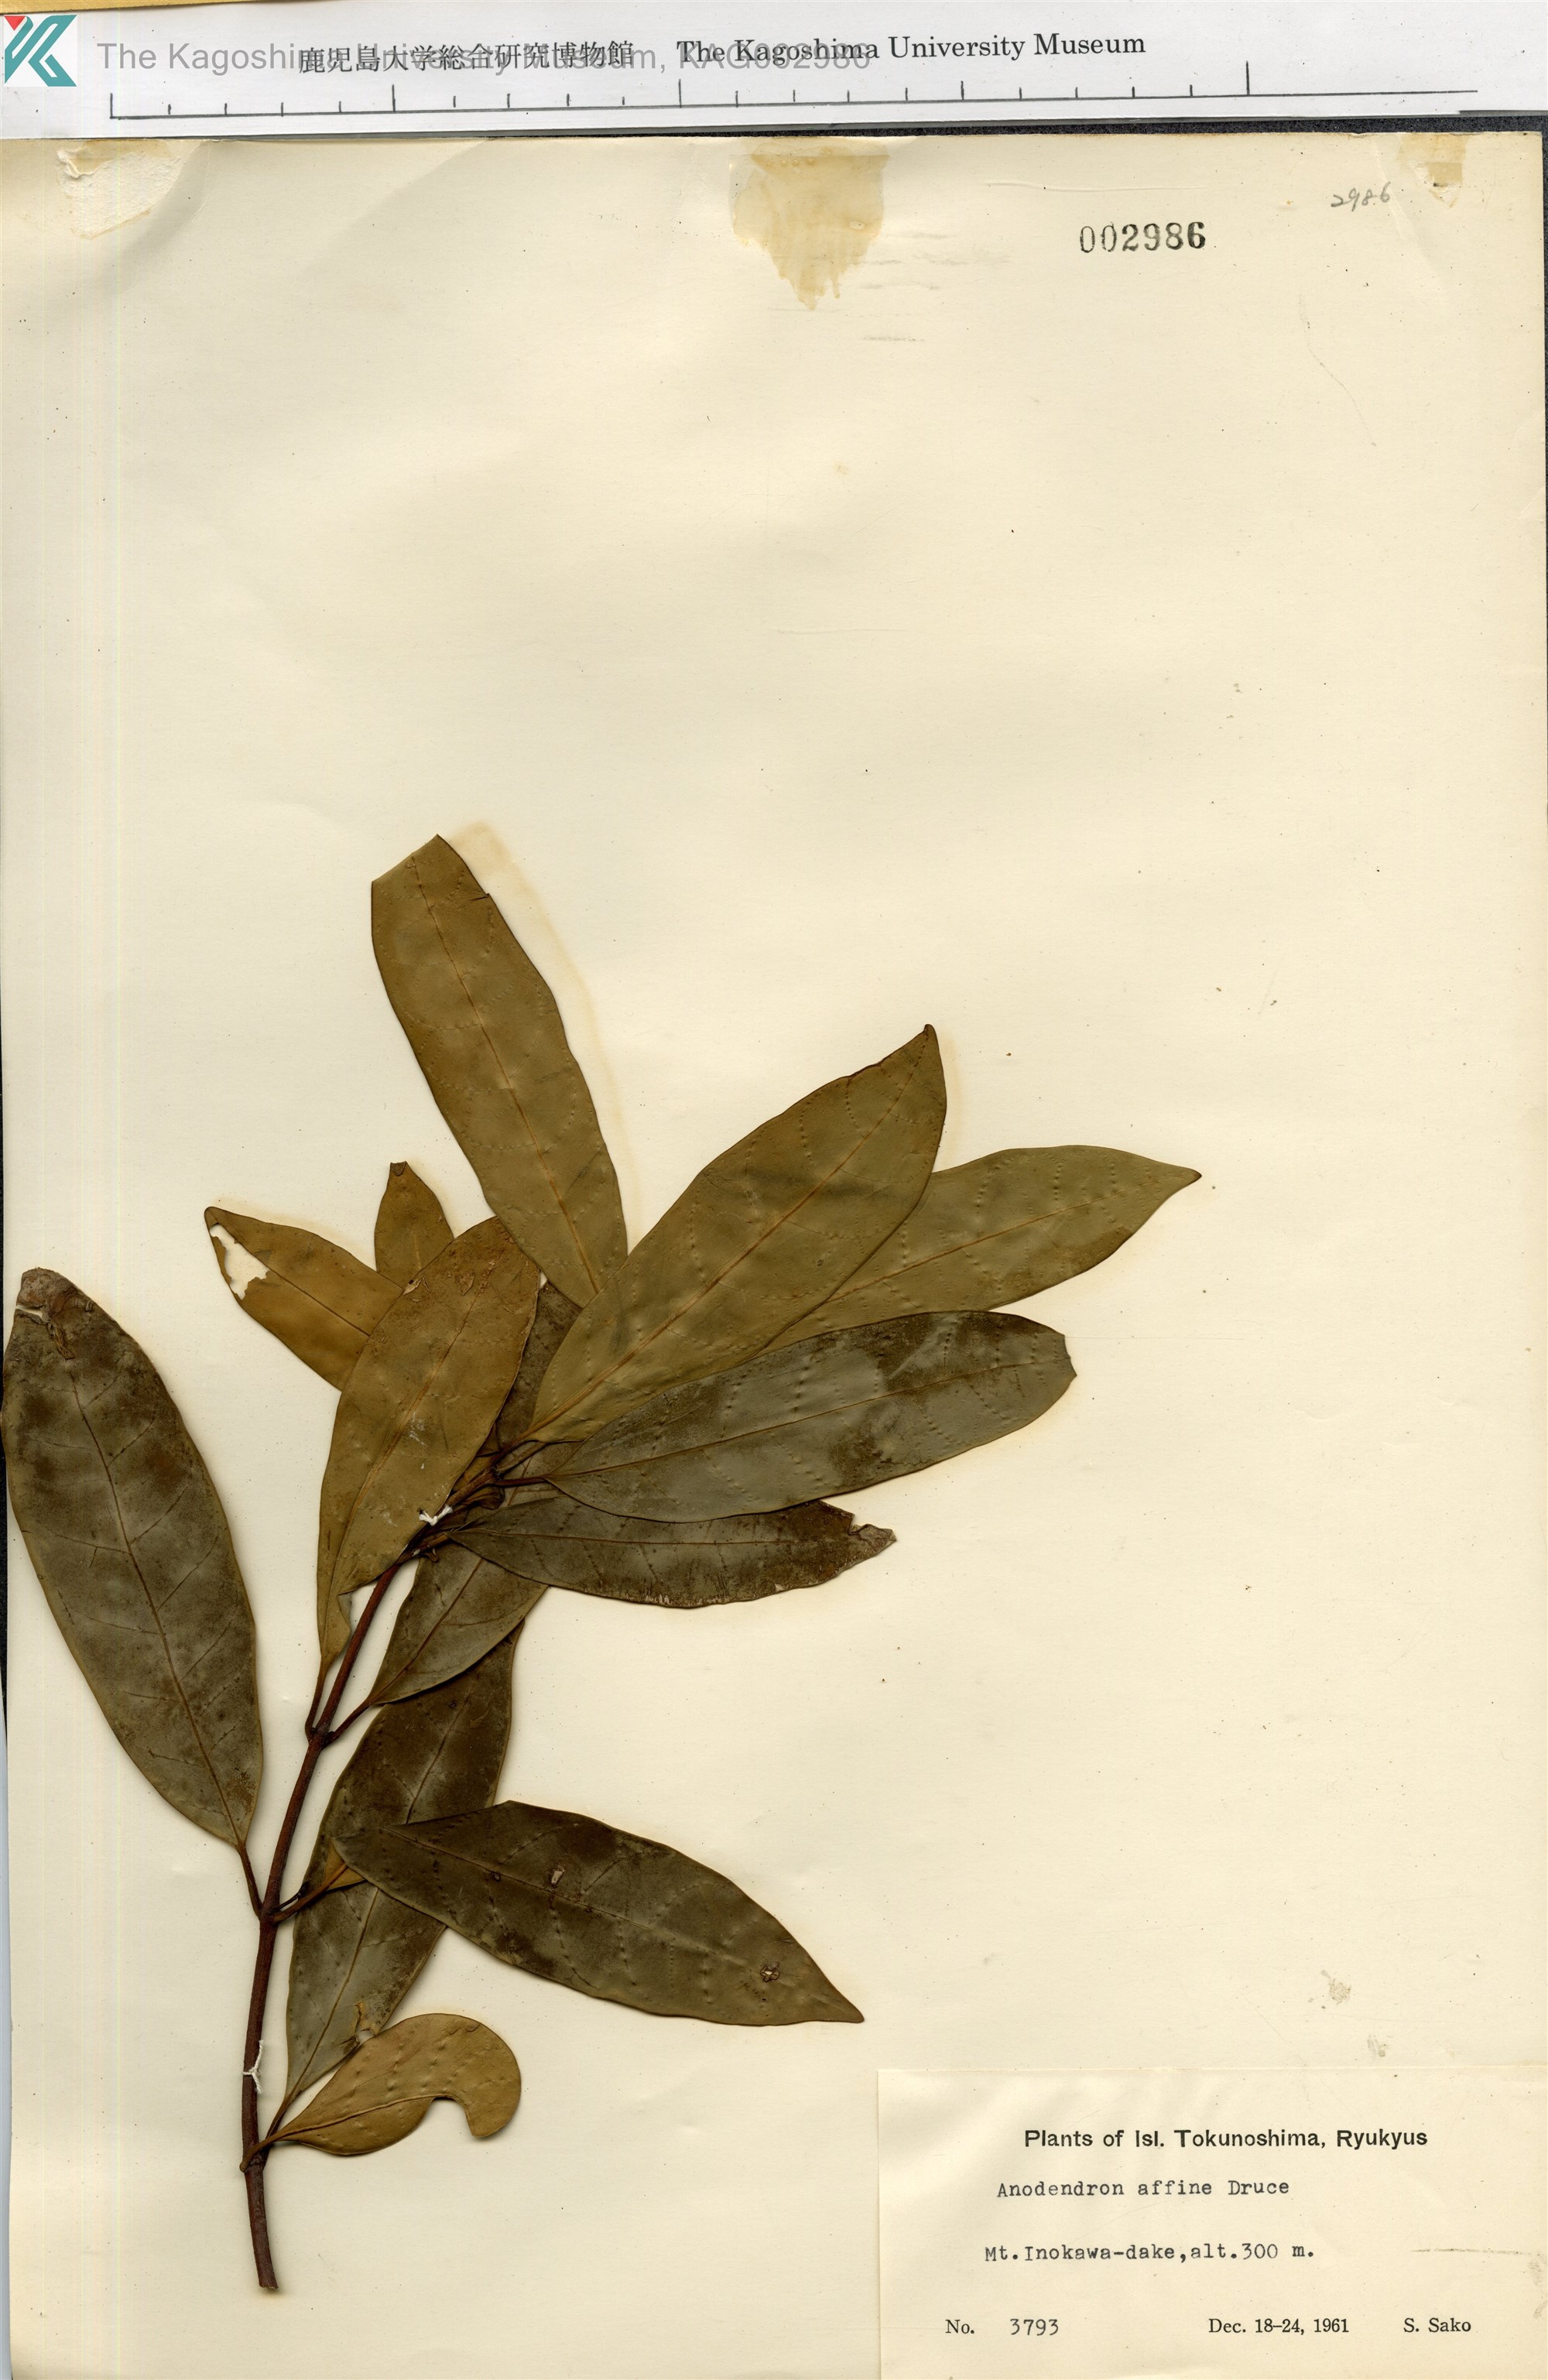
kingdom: Plantae
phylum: Tracheophyta
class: Magnoliopsida
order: Gentianales
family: Apocynaceae
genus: Anodendron
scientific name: Anodendron affine
